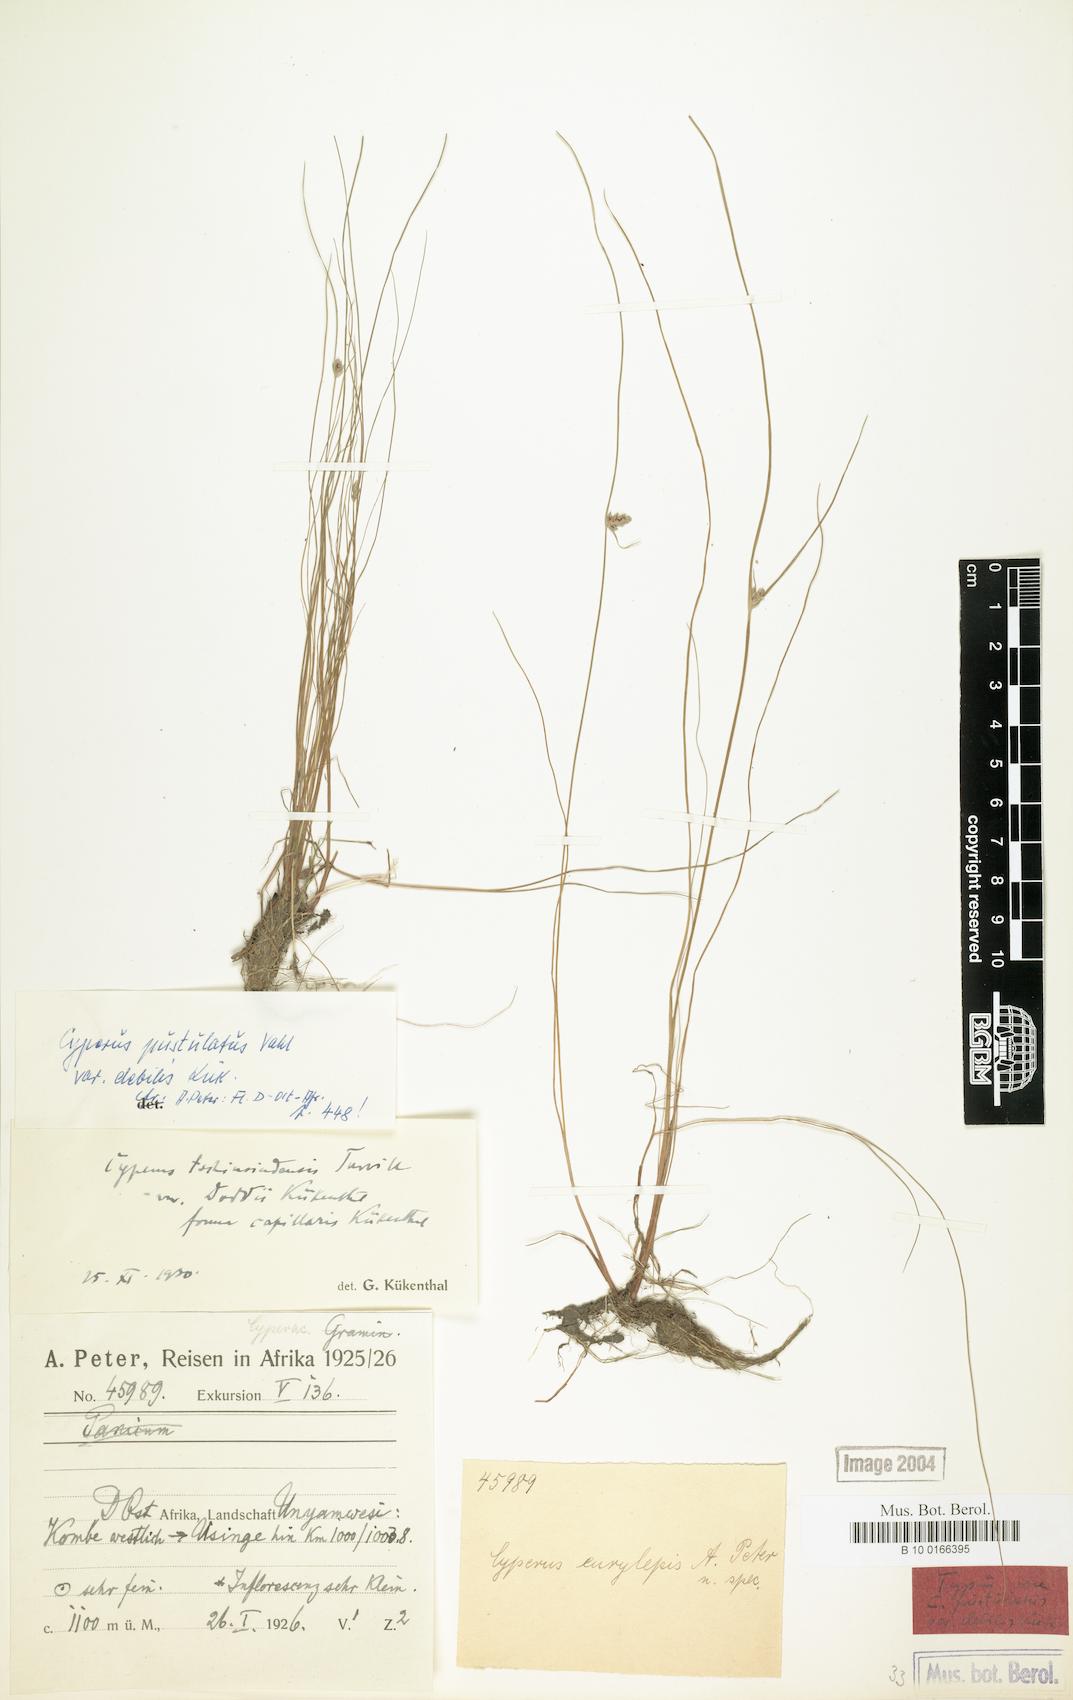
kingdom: Plantae
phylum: Tracheophyta
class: Liliopsida
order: Poales
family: Cyperaceae
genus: Cyperus
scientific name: Cyperus pustulatus
